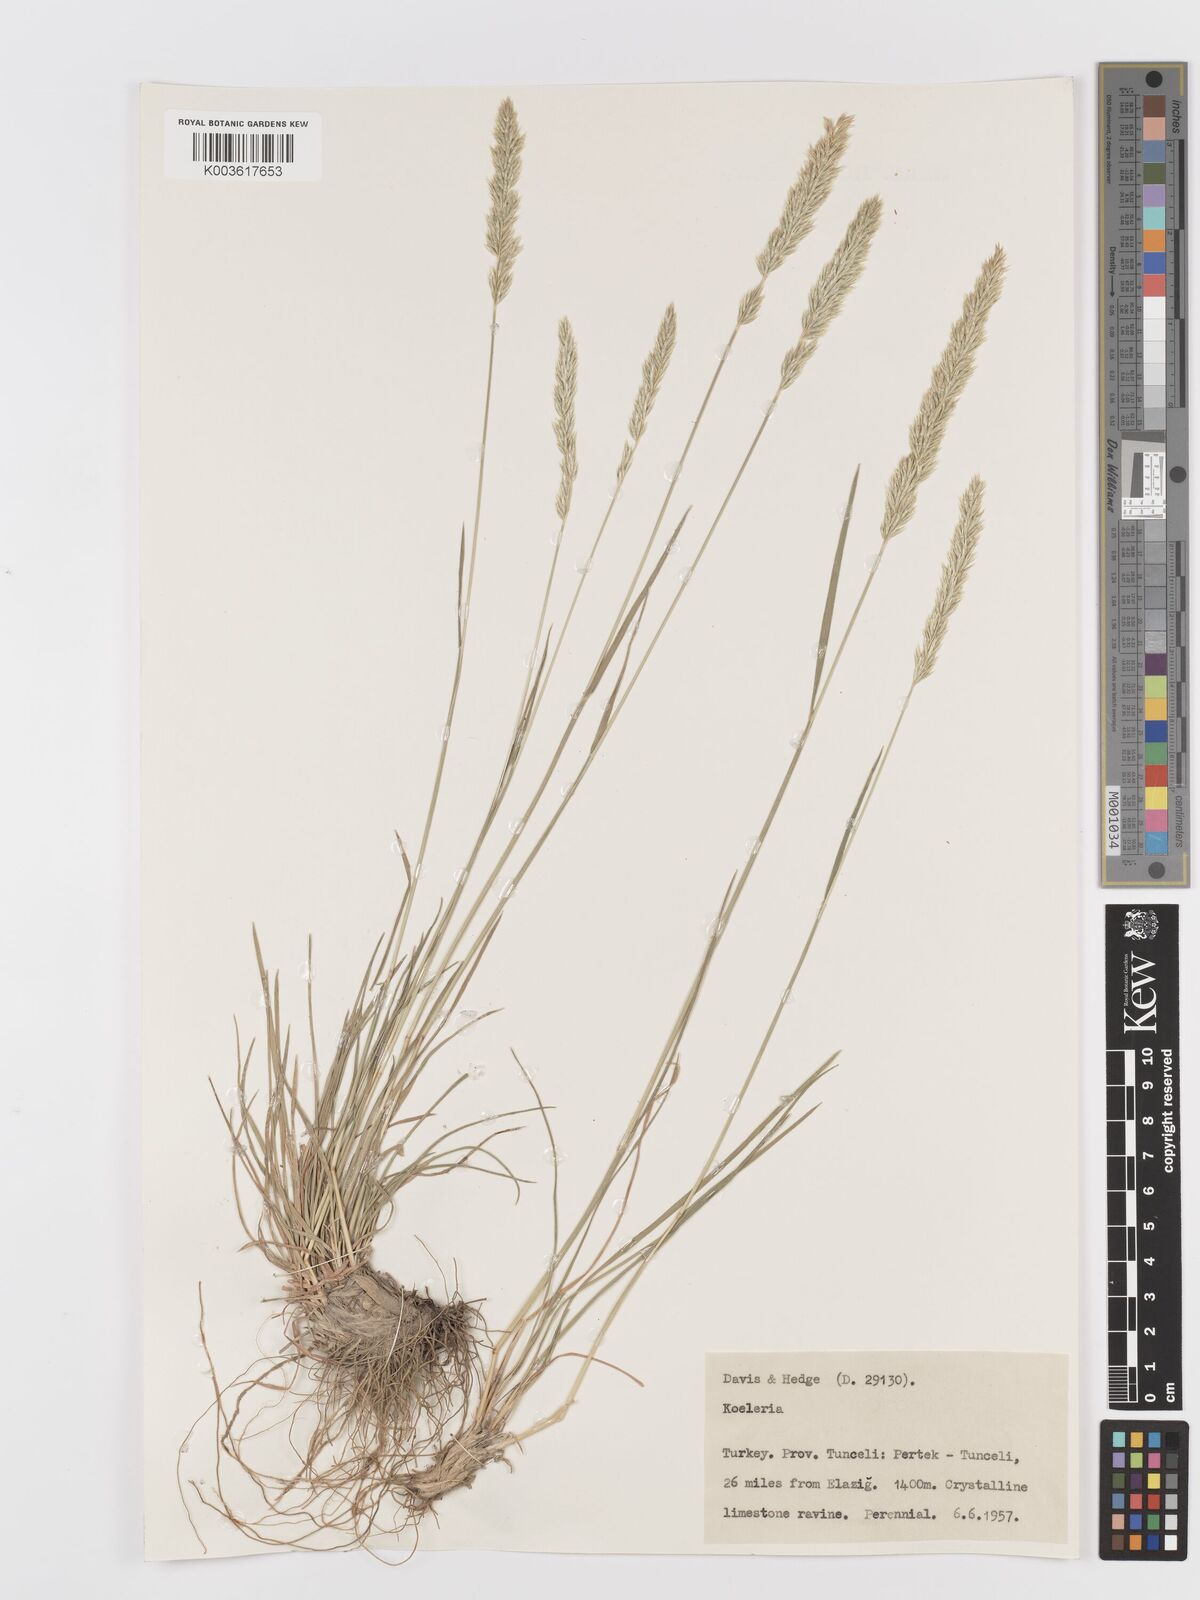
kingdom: Plantae
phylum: Tracheophyta
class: Liliopsida
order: Poales
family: Poaceae
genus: Koeleria
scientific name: Koeleria
